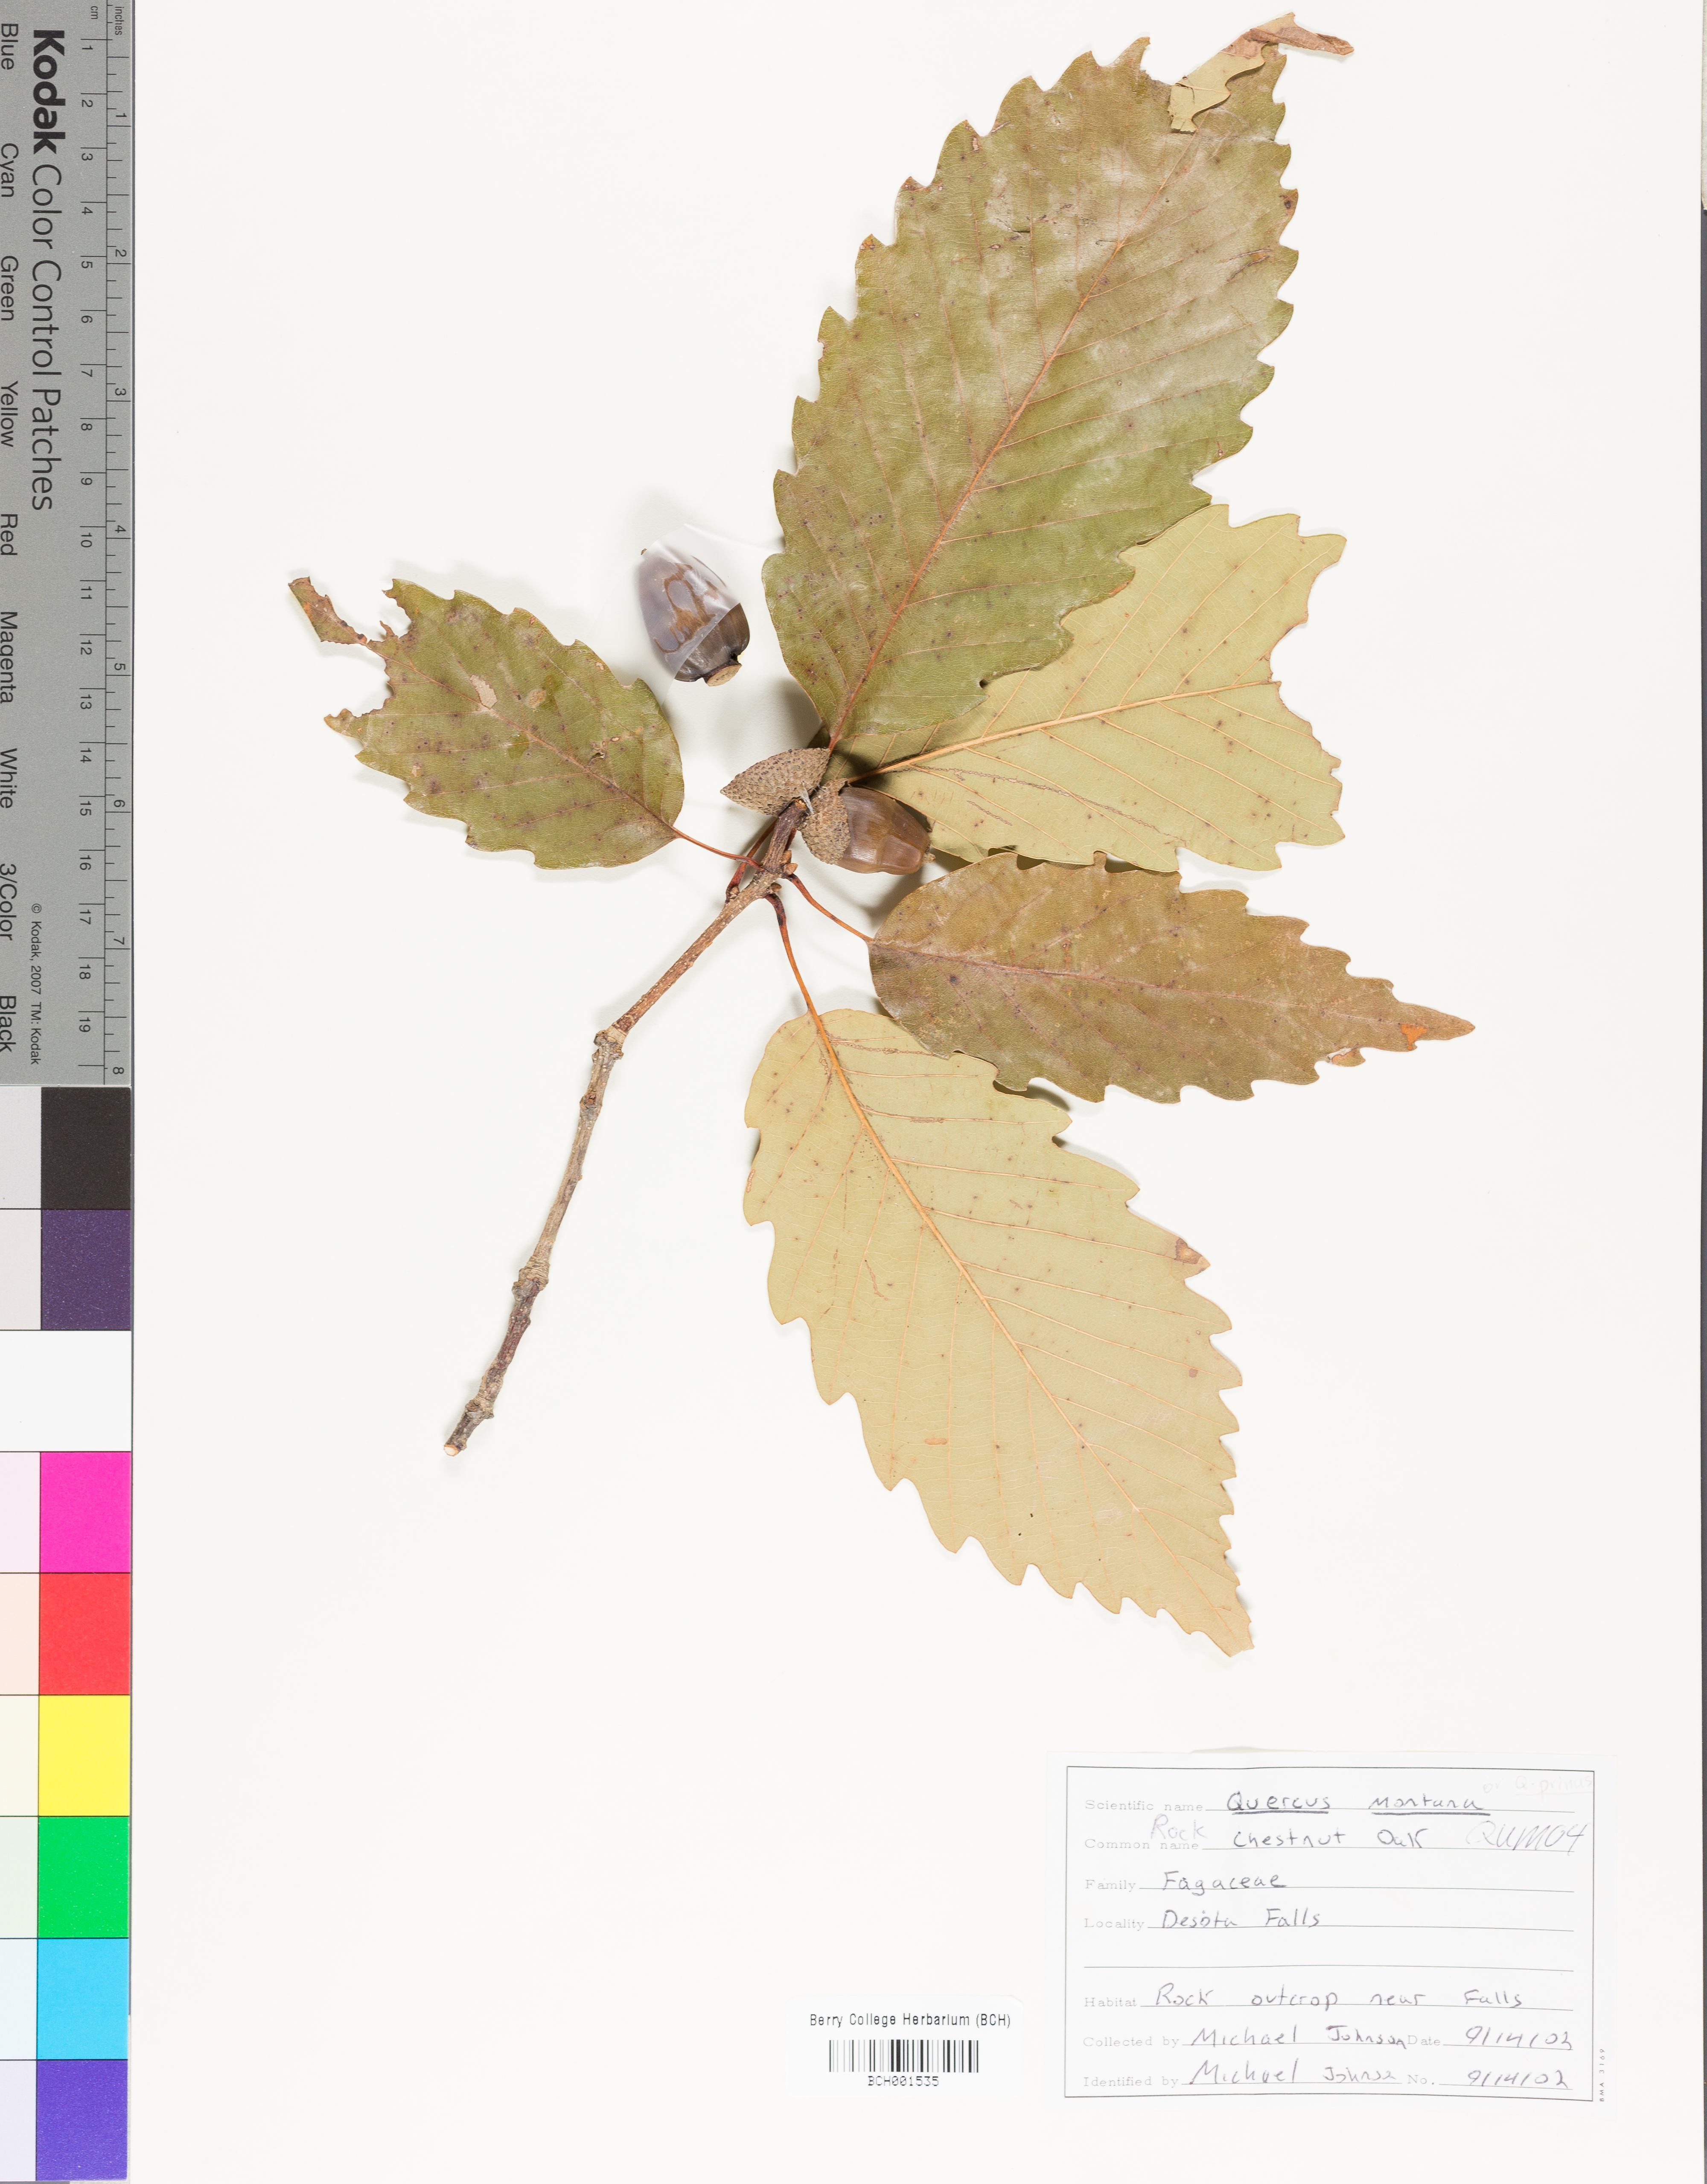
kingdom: Plantae
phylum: Tracheophyta
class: Magnoliopsida
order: Fagales
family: Fagaceae
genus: Quercus
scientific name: Quercus montana
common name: Chestnut oak
